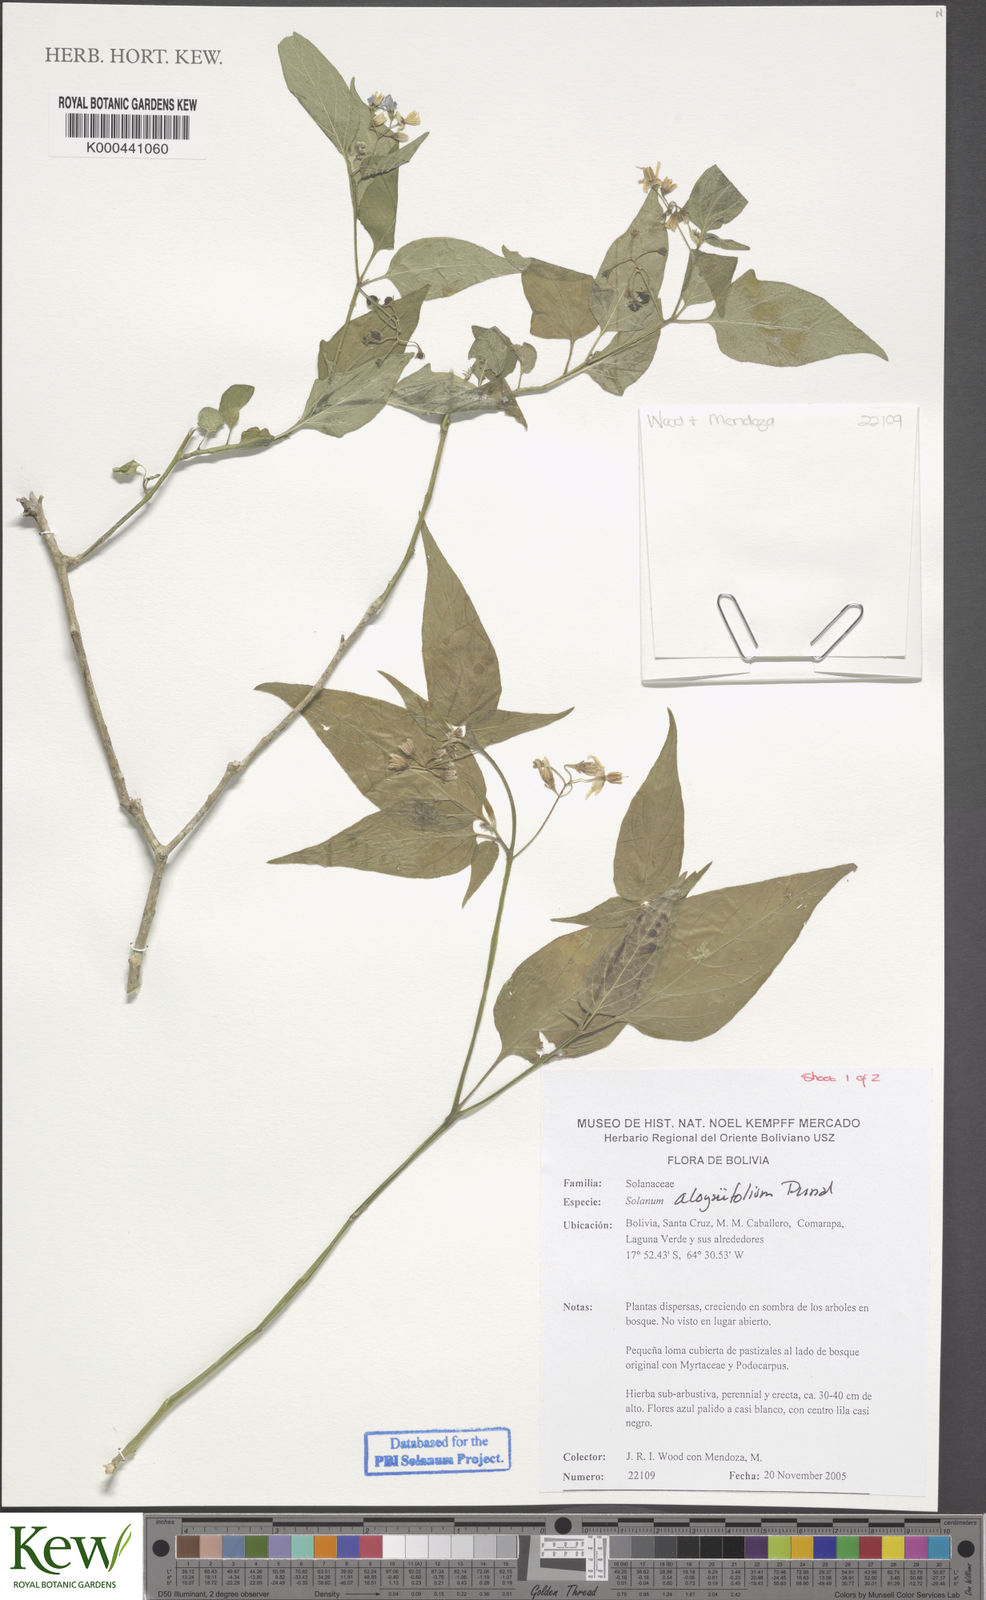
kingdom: Plantae
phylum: Tracheophyta
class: Magnoliopsida
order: Solanales
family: Solanaceae
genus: Solanum
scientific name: Solanum zuloagae
